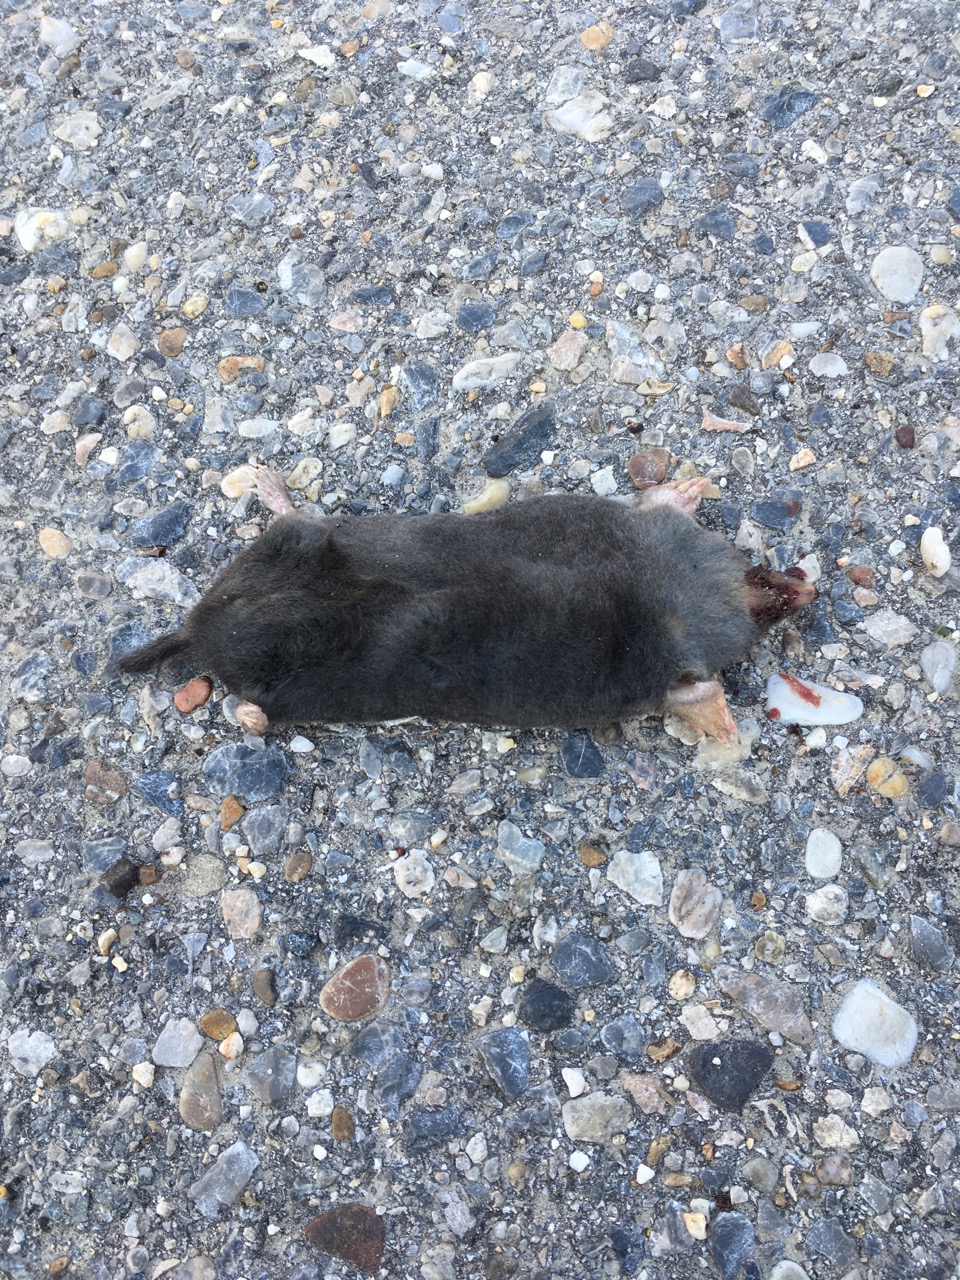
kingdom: Animalia
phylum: Chordata
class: Mammalia
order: Soricomorpha
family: Talpidae
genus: Talpa
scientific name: Talpa europaea
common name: European mole
